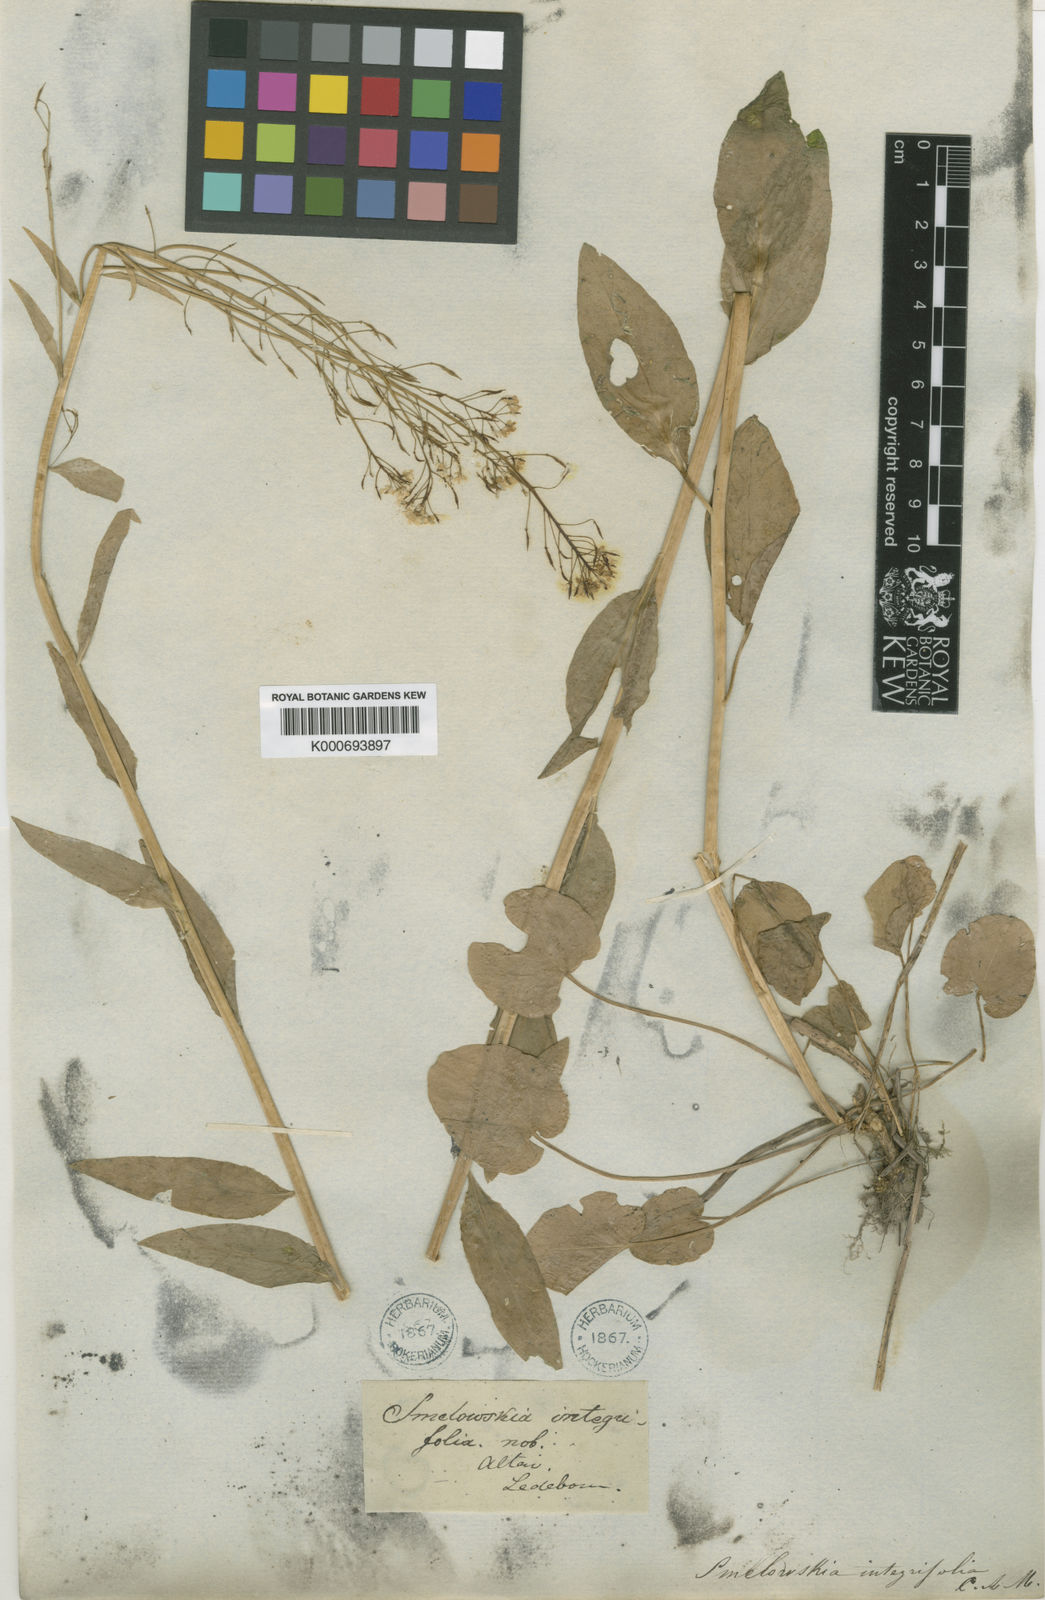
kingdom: Plantae
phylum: Tracheophyta
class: Magnoliopsida
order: Brassicales
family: Brassicaceae
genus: Eutrema
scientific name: Eutrema integrifolium
